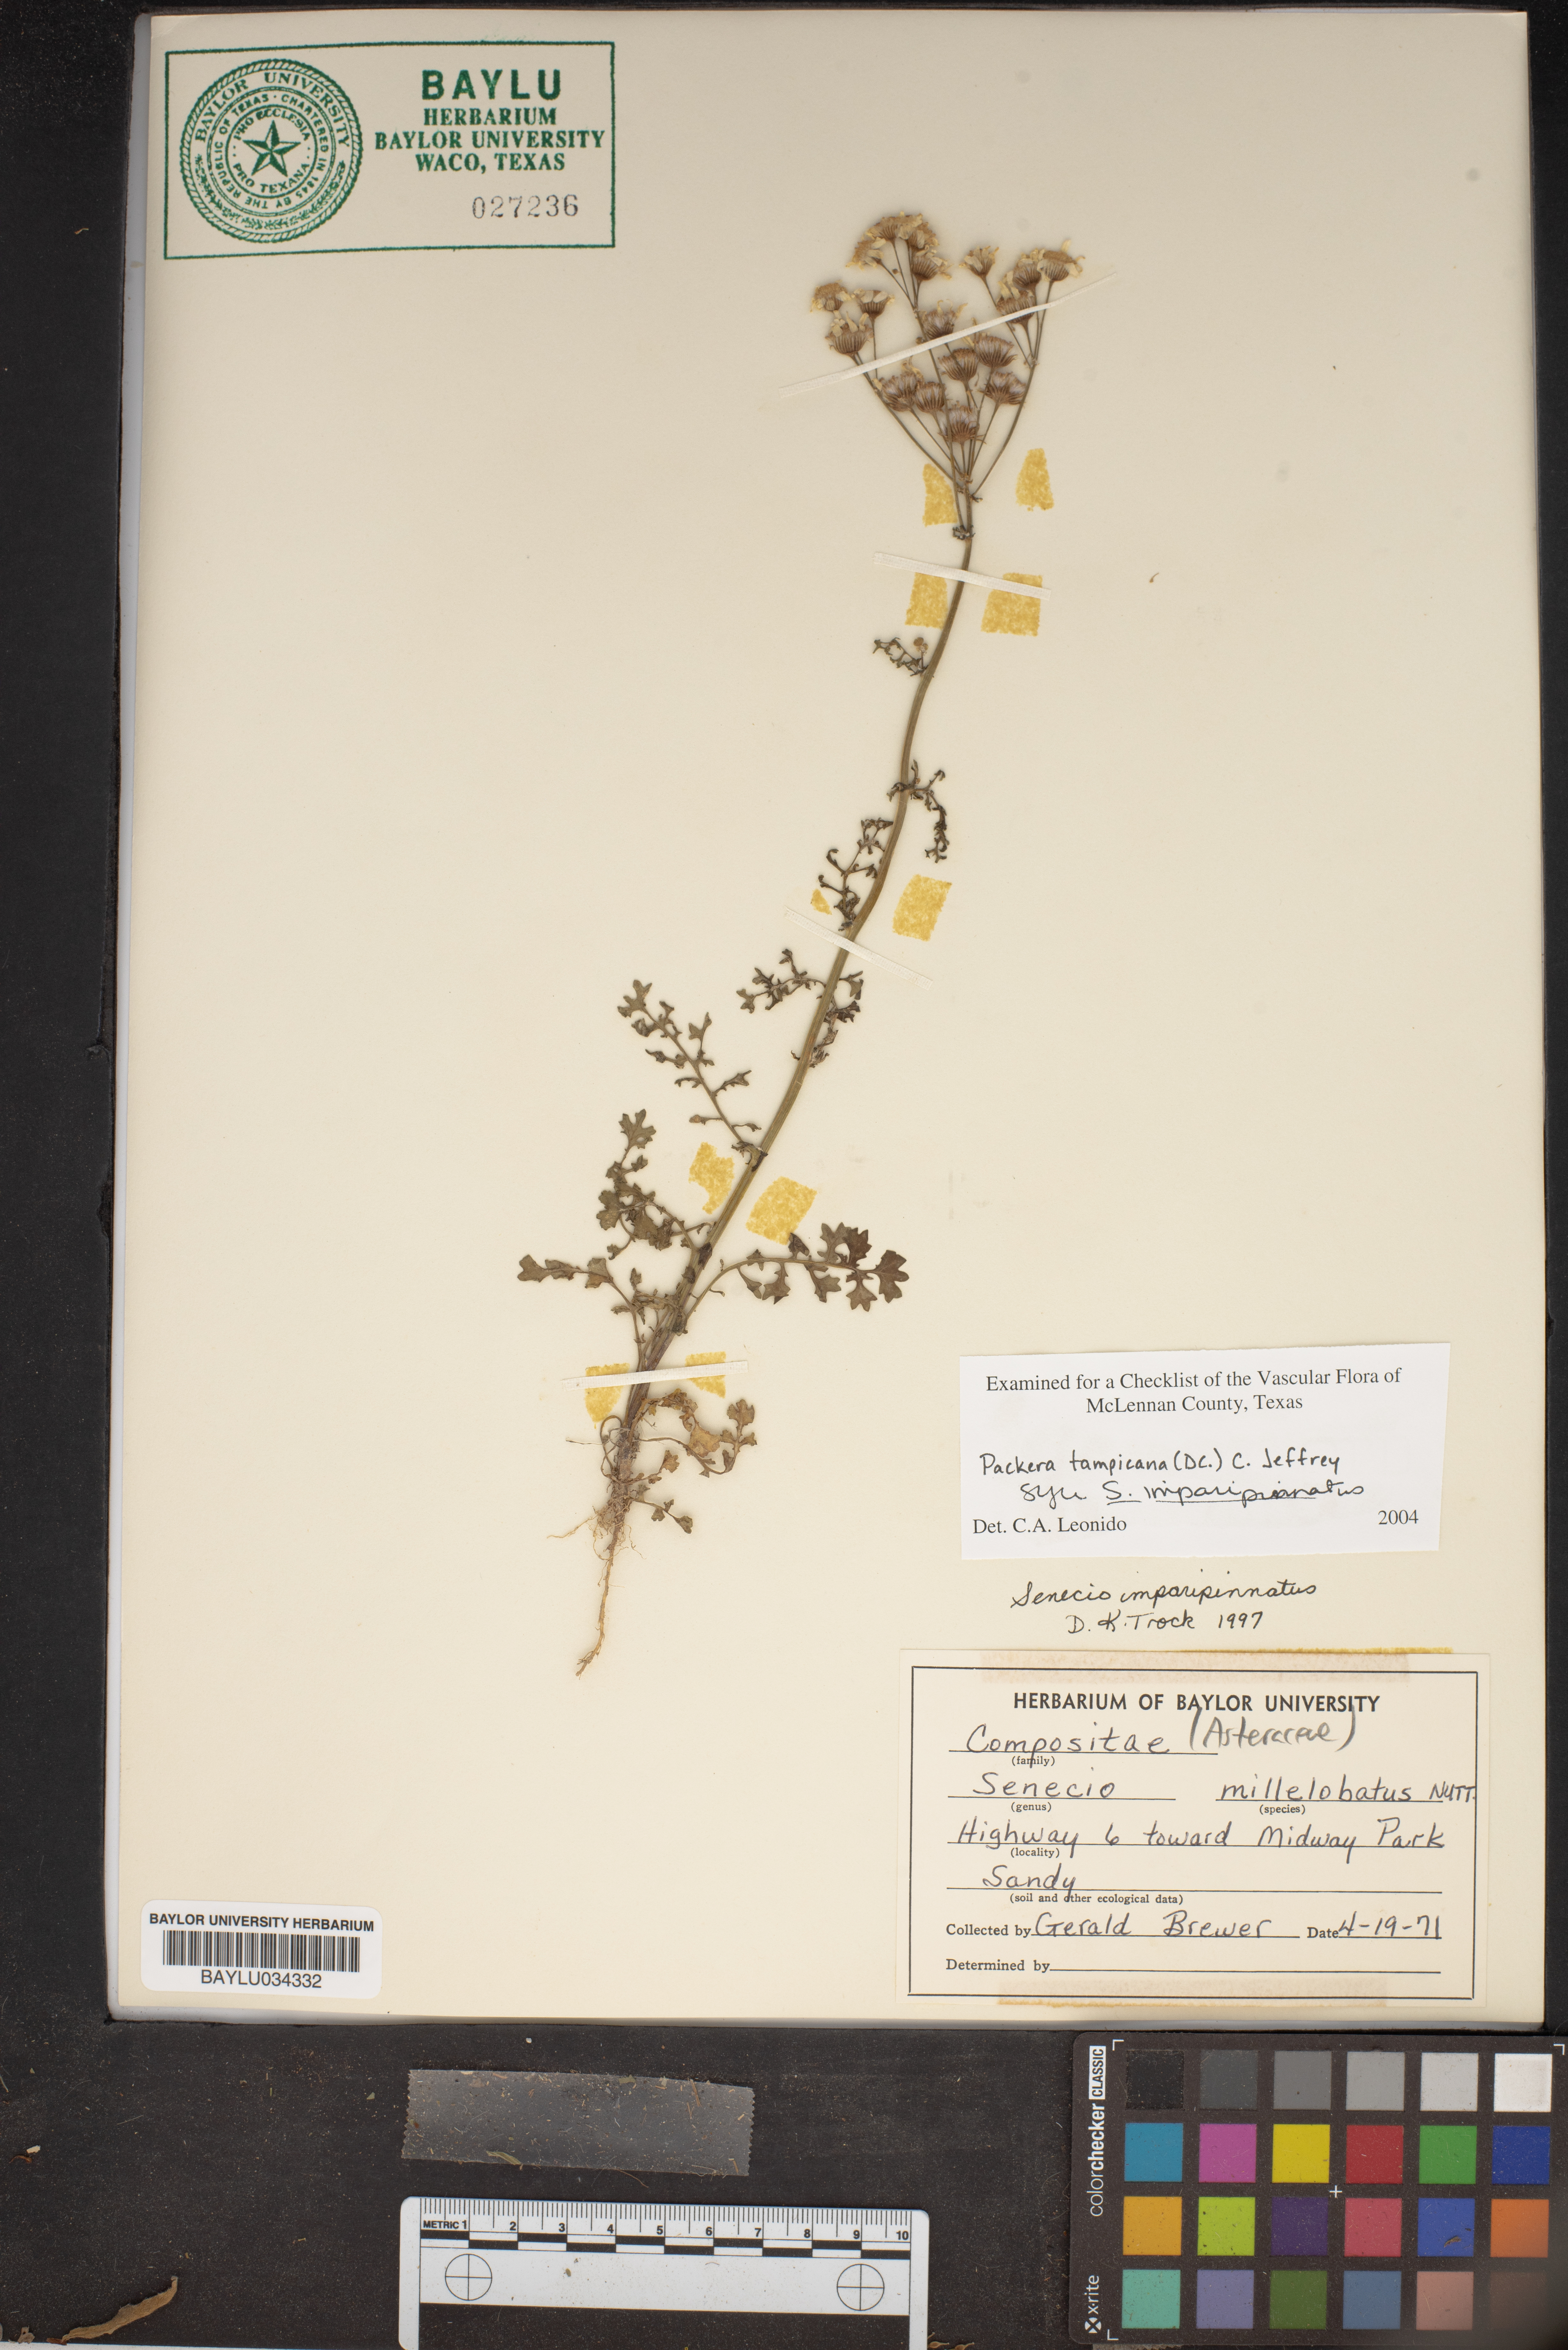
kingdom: Plantae
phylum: Tracheophyta
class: Magnoliopsida
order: Asterales
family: Asteraceae
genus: Packera
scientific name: Packera tampicana
